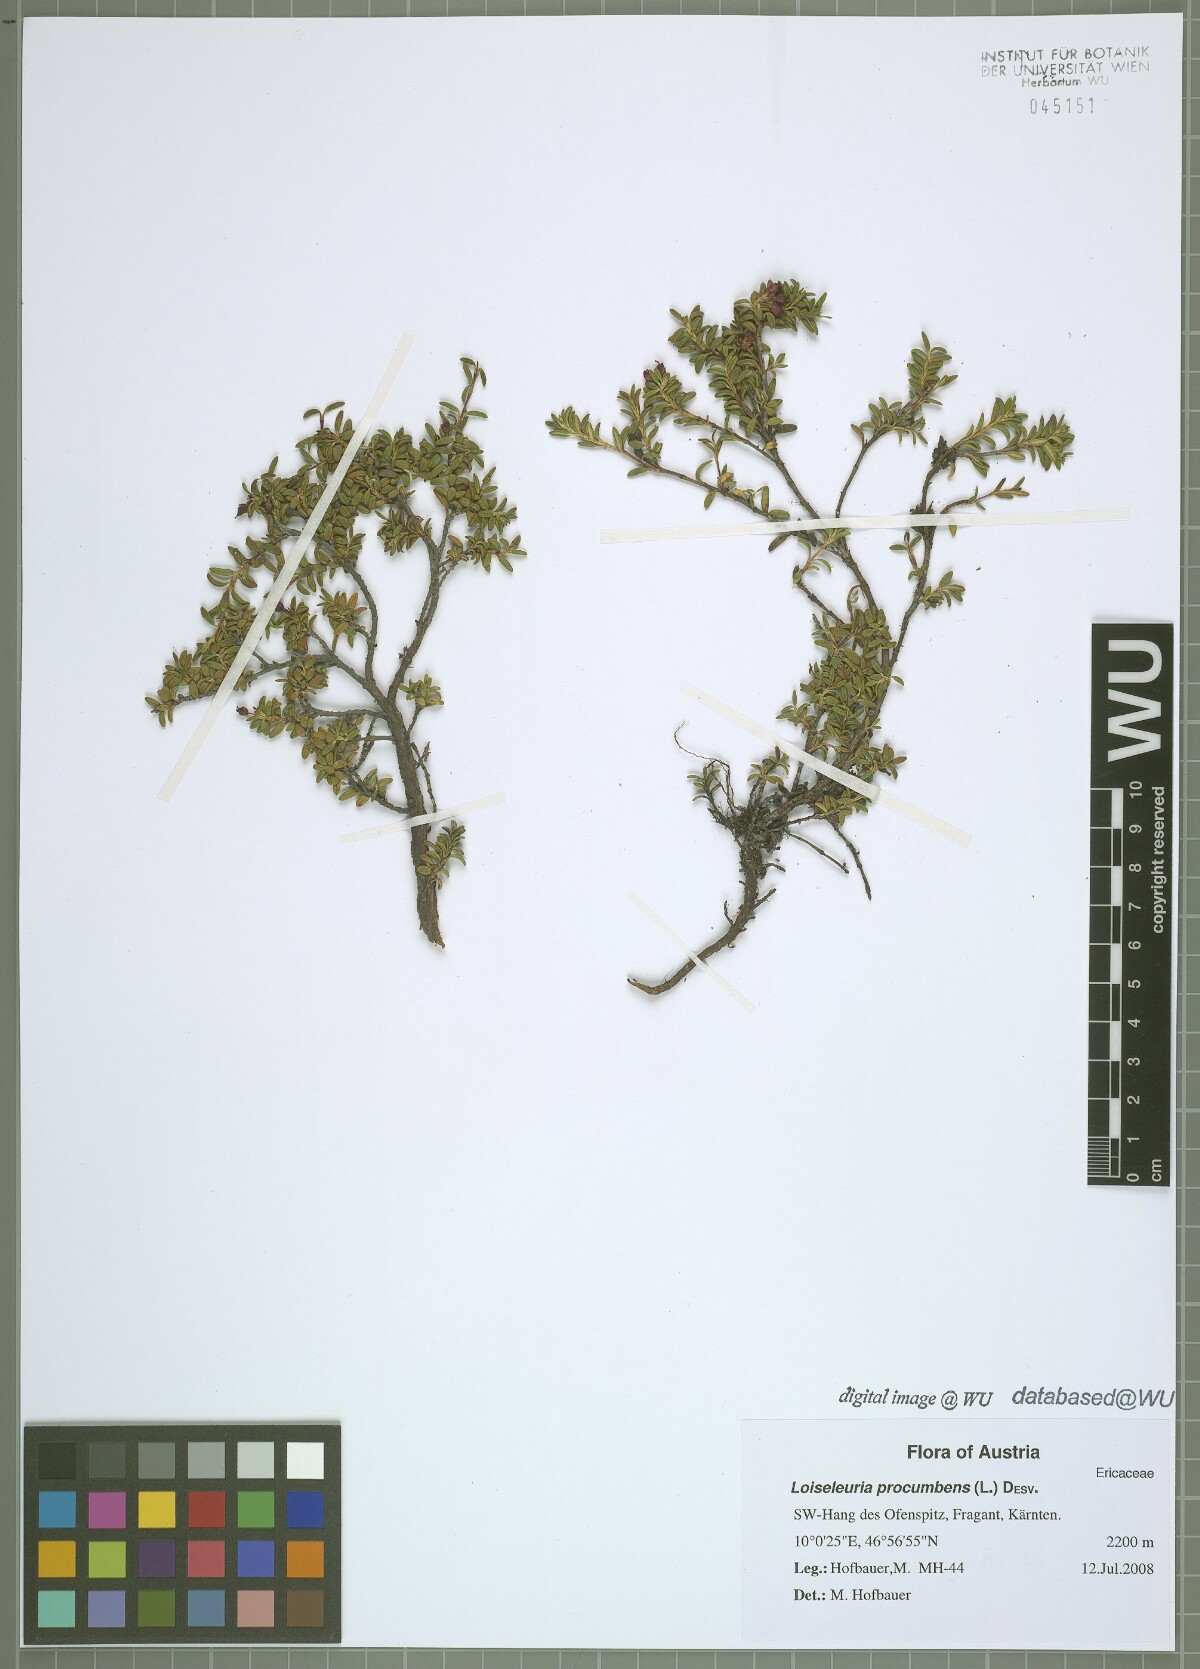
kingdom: Plantae
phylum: Tracheophyta
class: Magnoliopsida
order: Ericales
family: Ericaceae
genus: Kalmia
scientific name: Kalmia procumbens
